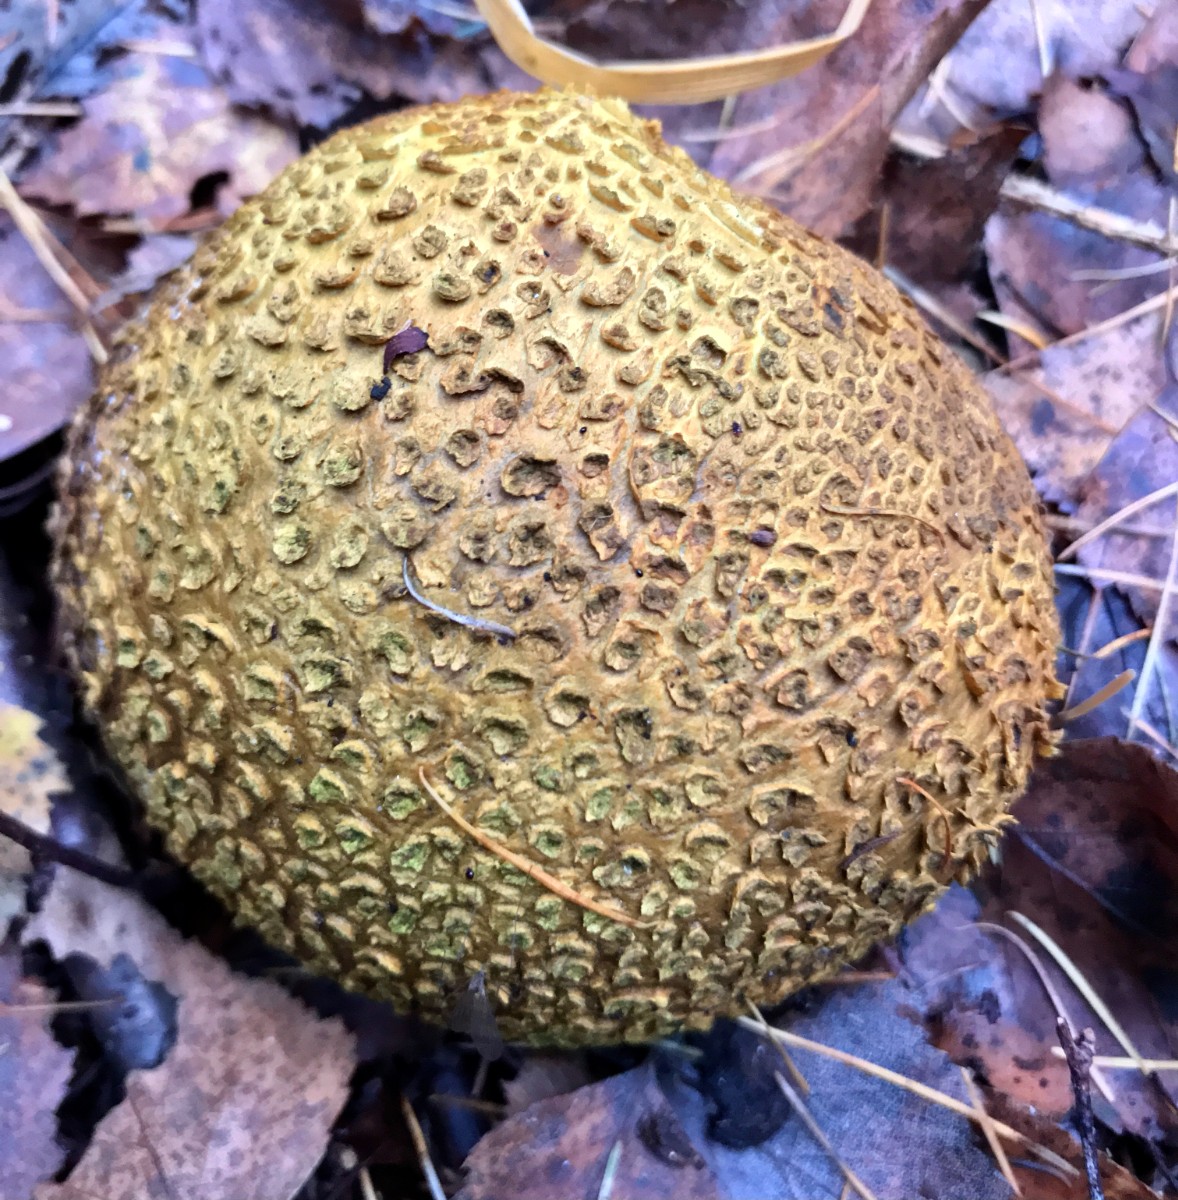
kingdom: Fungi
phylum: Basidiomycota
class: Agaricomycetes
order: Boletales
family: Sclerodermataceae
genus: Scleroderma
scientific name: Scleroderma citrinum
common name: almindelig bruskbold
